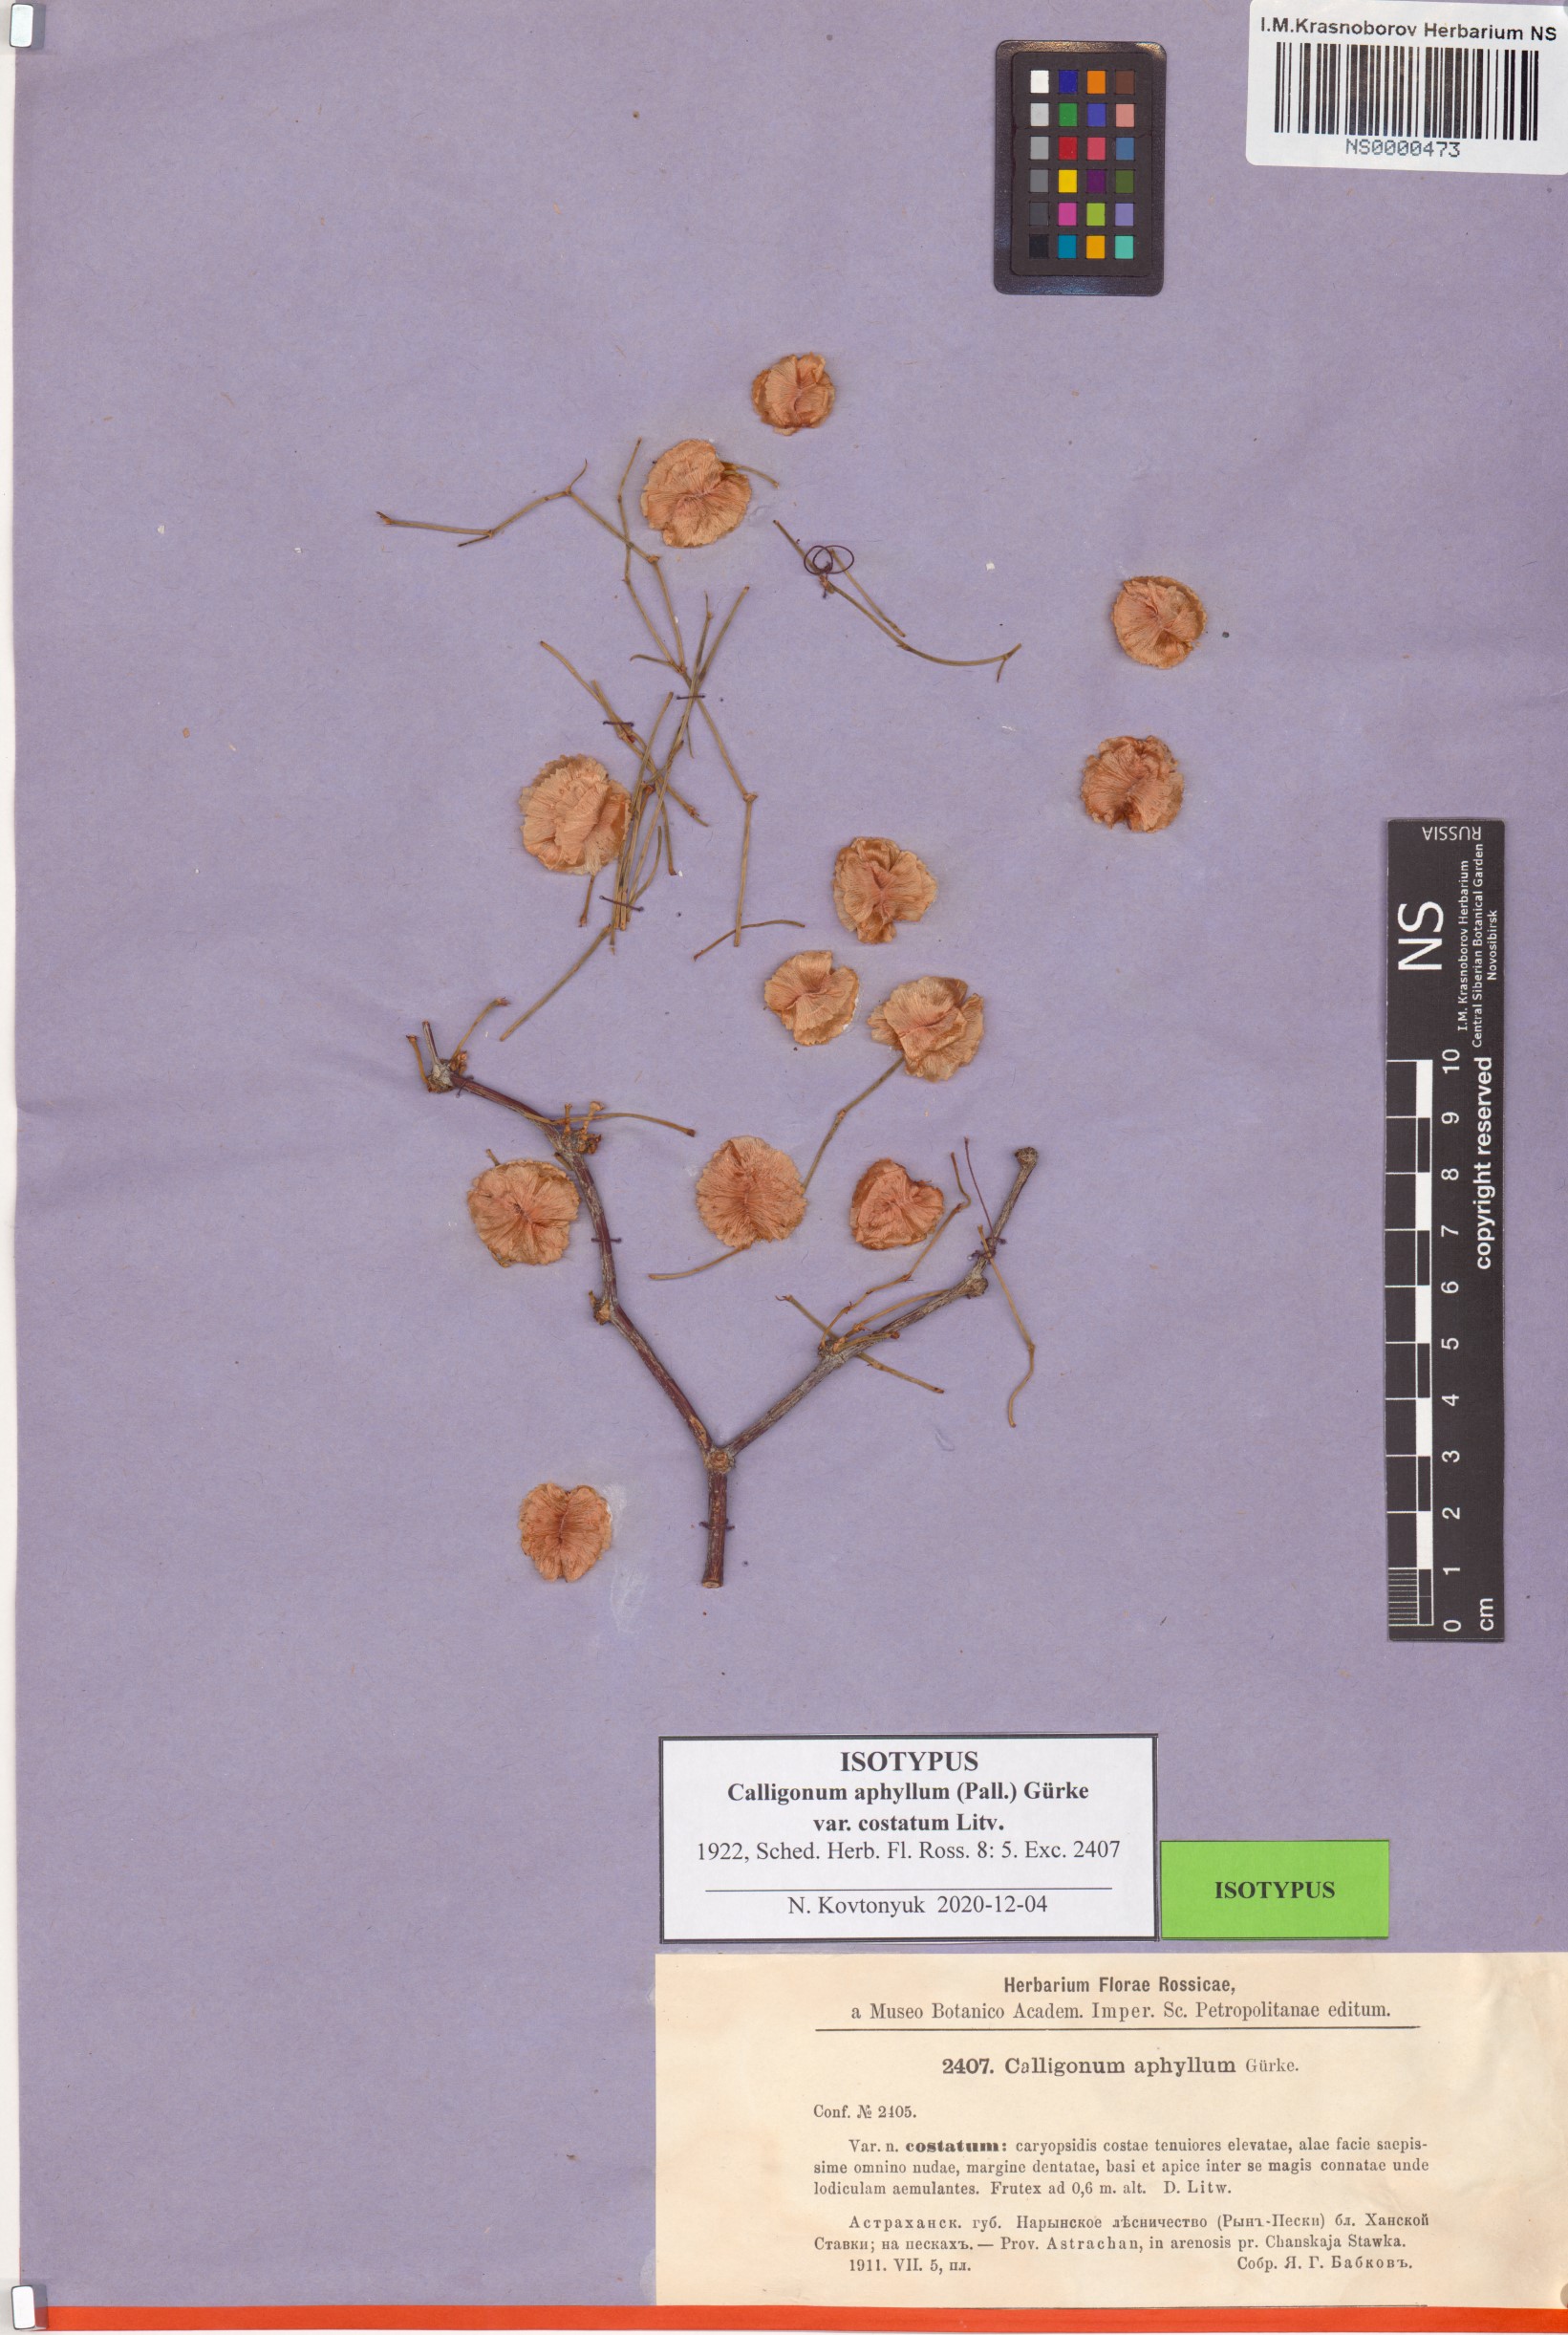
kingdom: Plantae
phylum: Tracheophyta
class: Magnoliopsida
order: Caryophyllales
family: Polygonaceae
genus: Calligonum
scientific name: Calligonum aphyllum
